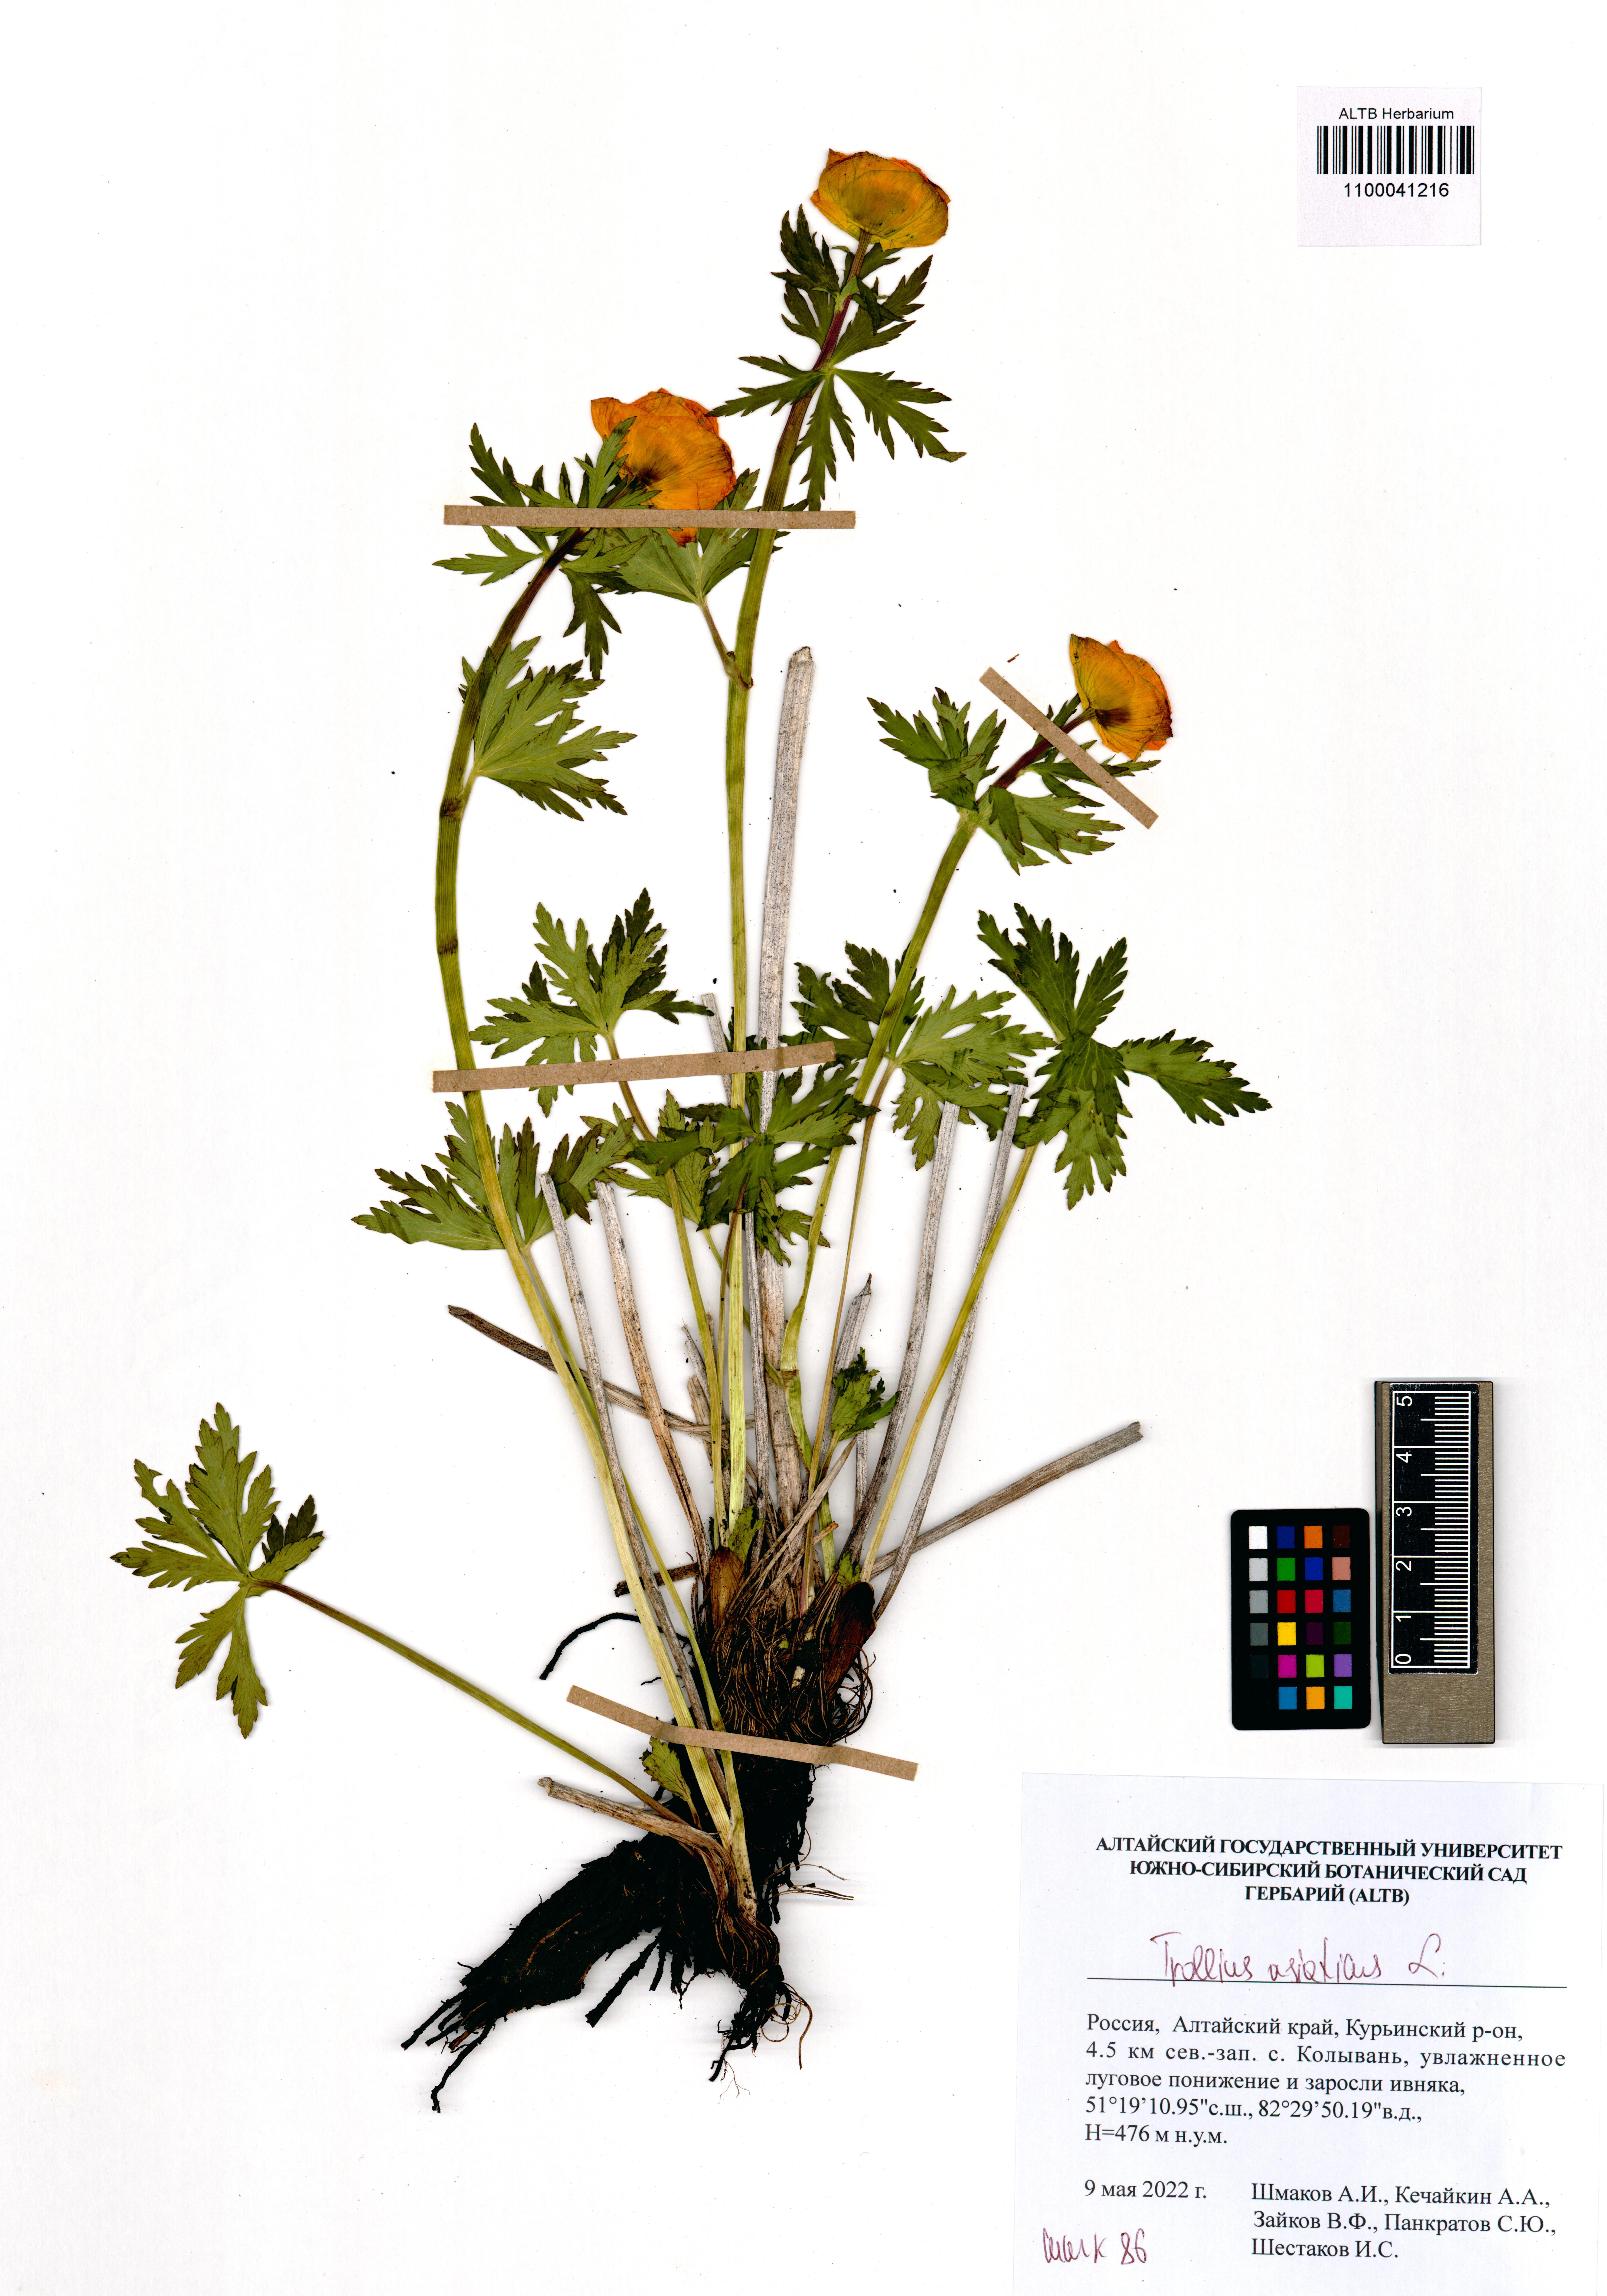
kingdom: Plantae
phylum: Tracheophyta
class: Magnoliopsida
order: Ranunculales
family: Ranunculaceae
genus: Trollius
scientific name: Trollius asiaticus
